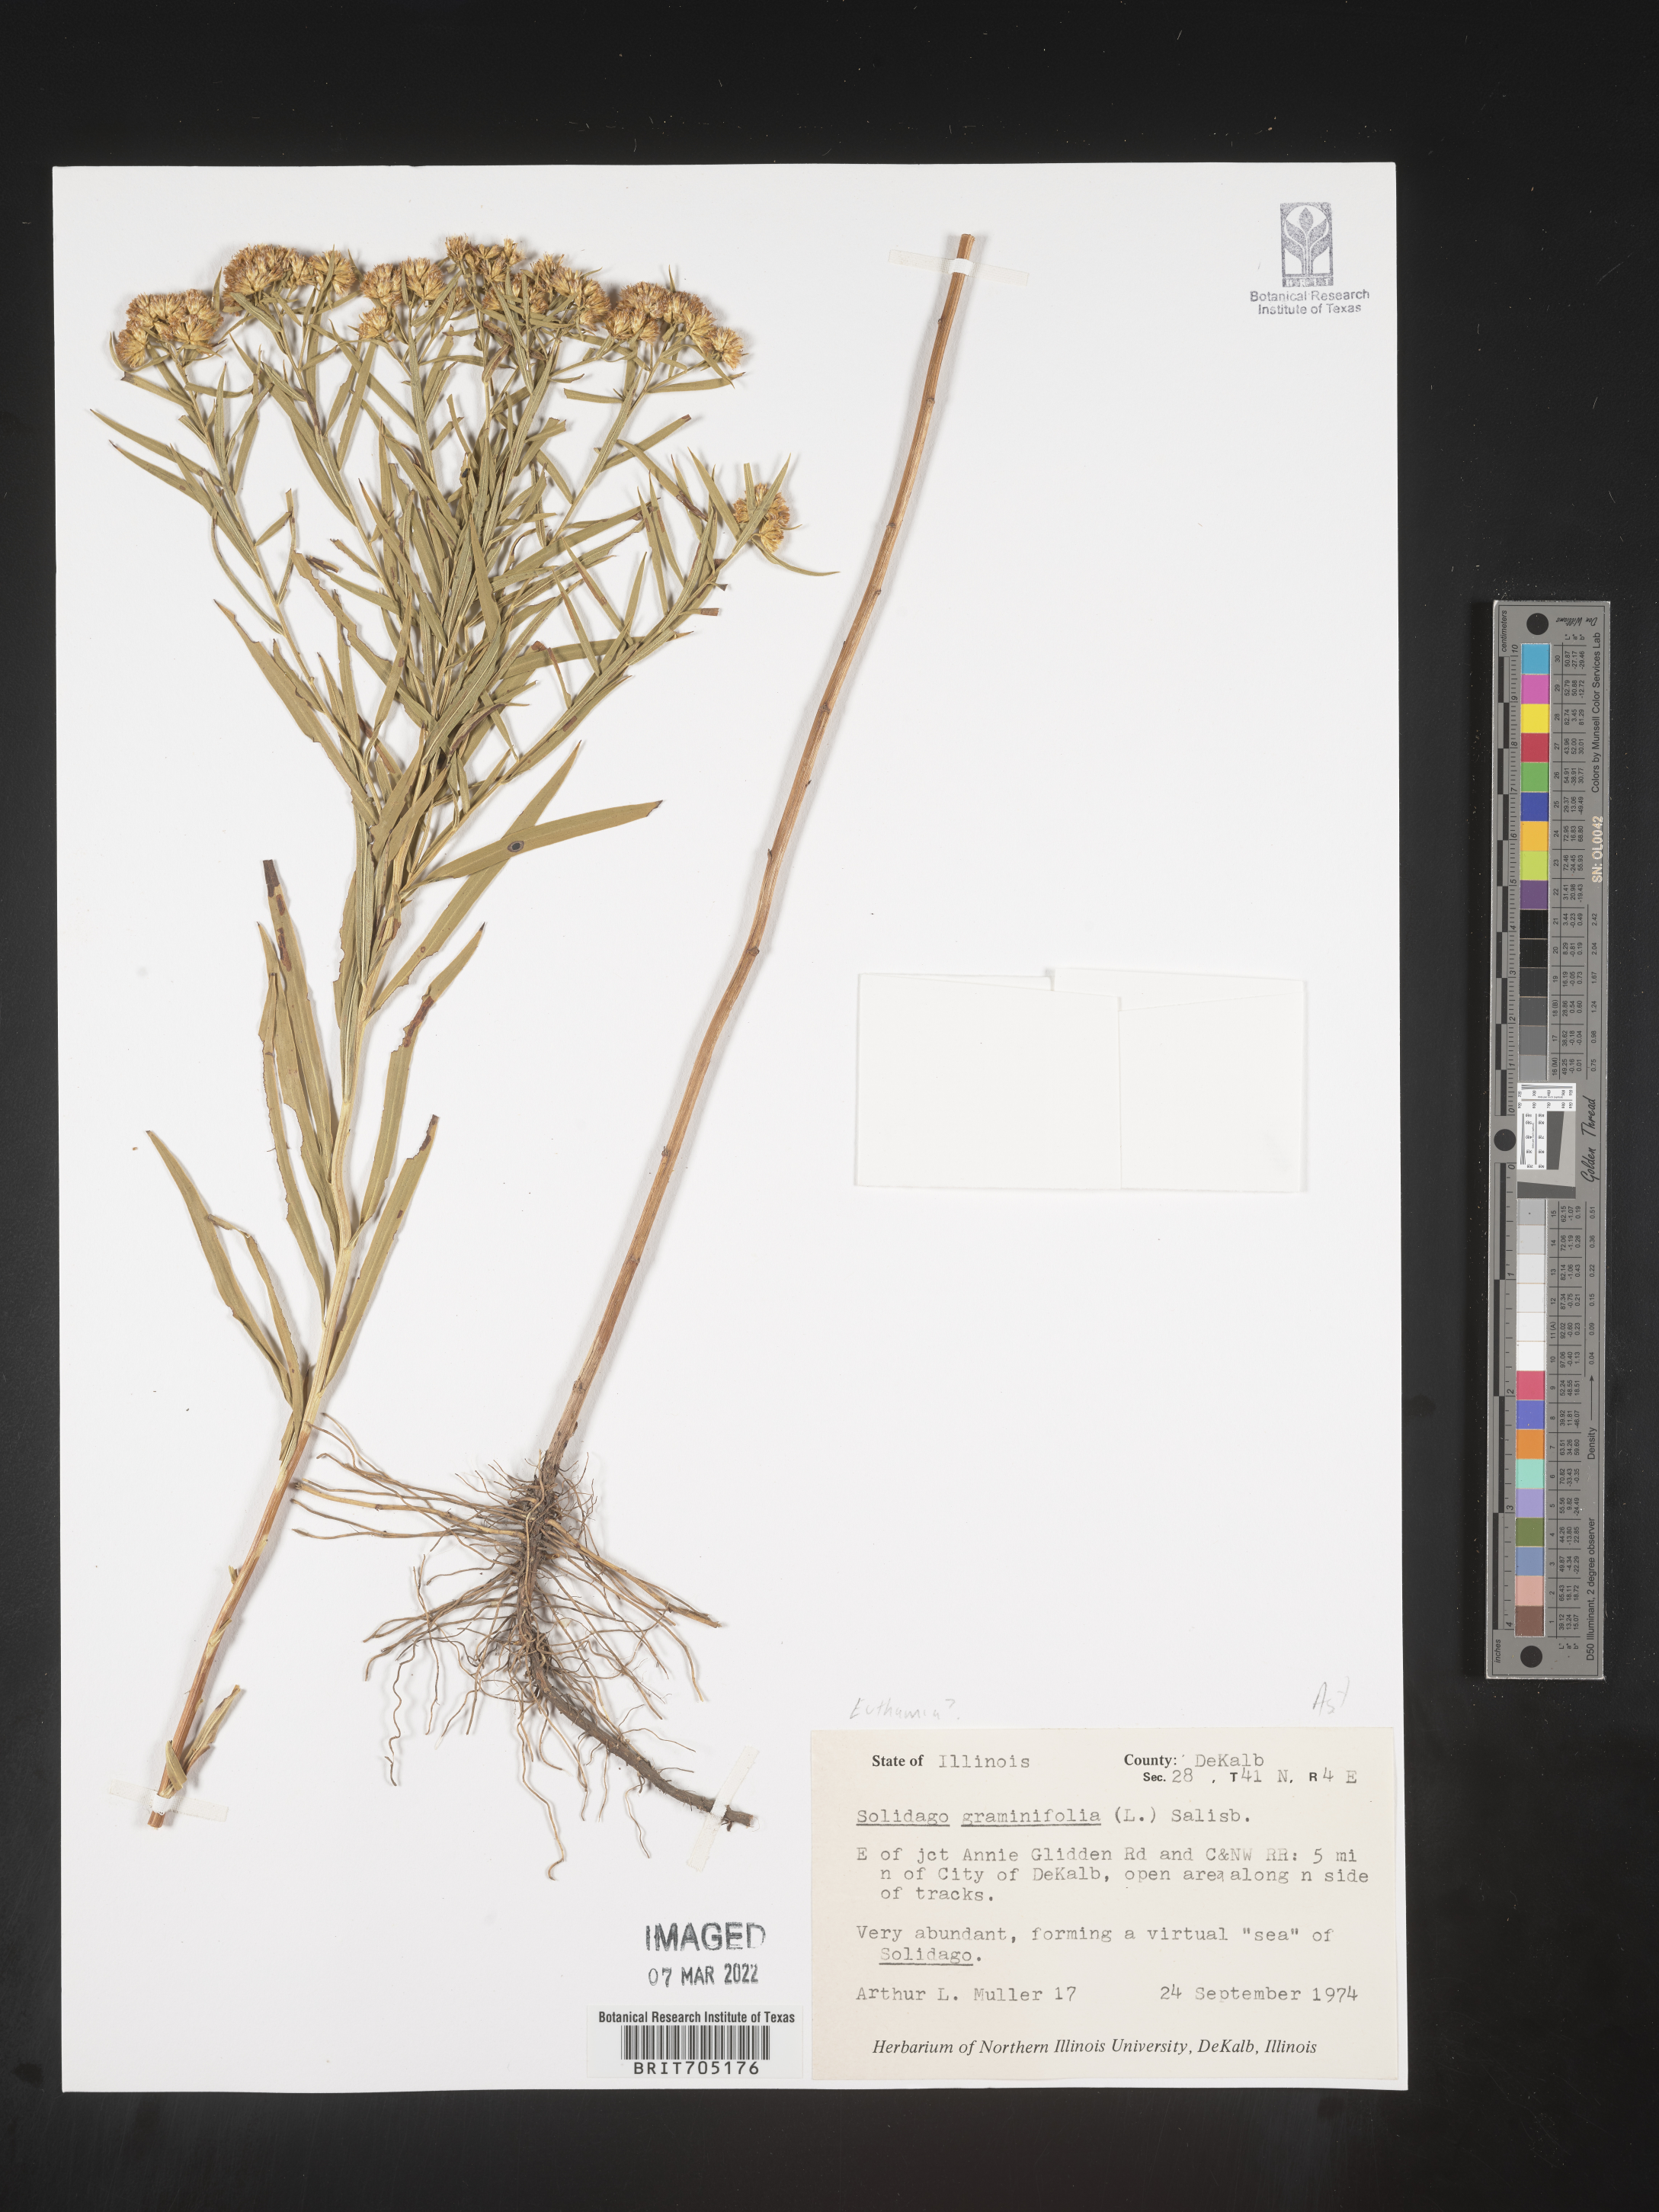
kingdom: Plantae
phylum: Tracheophyta
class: Magnoliopsida
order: Asterales
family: Asteraceae
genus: Euthamia
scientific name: Euthamia
